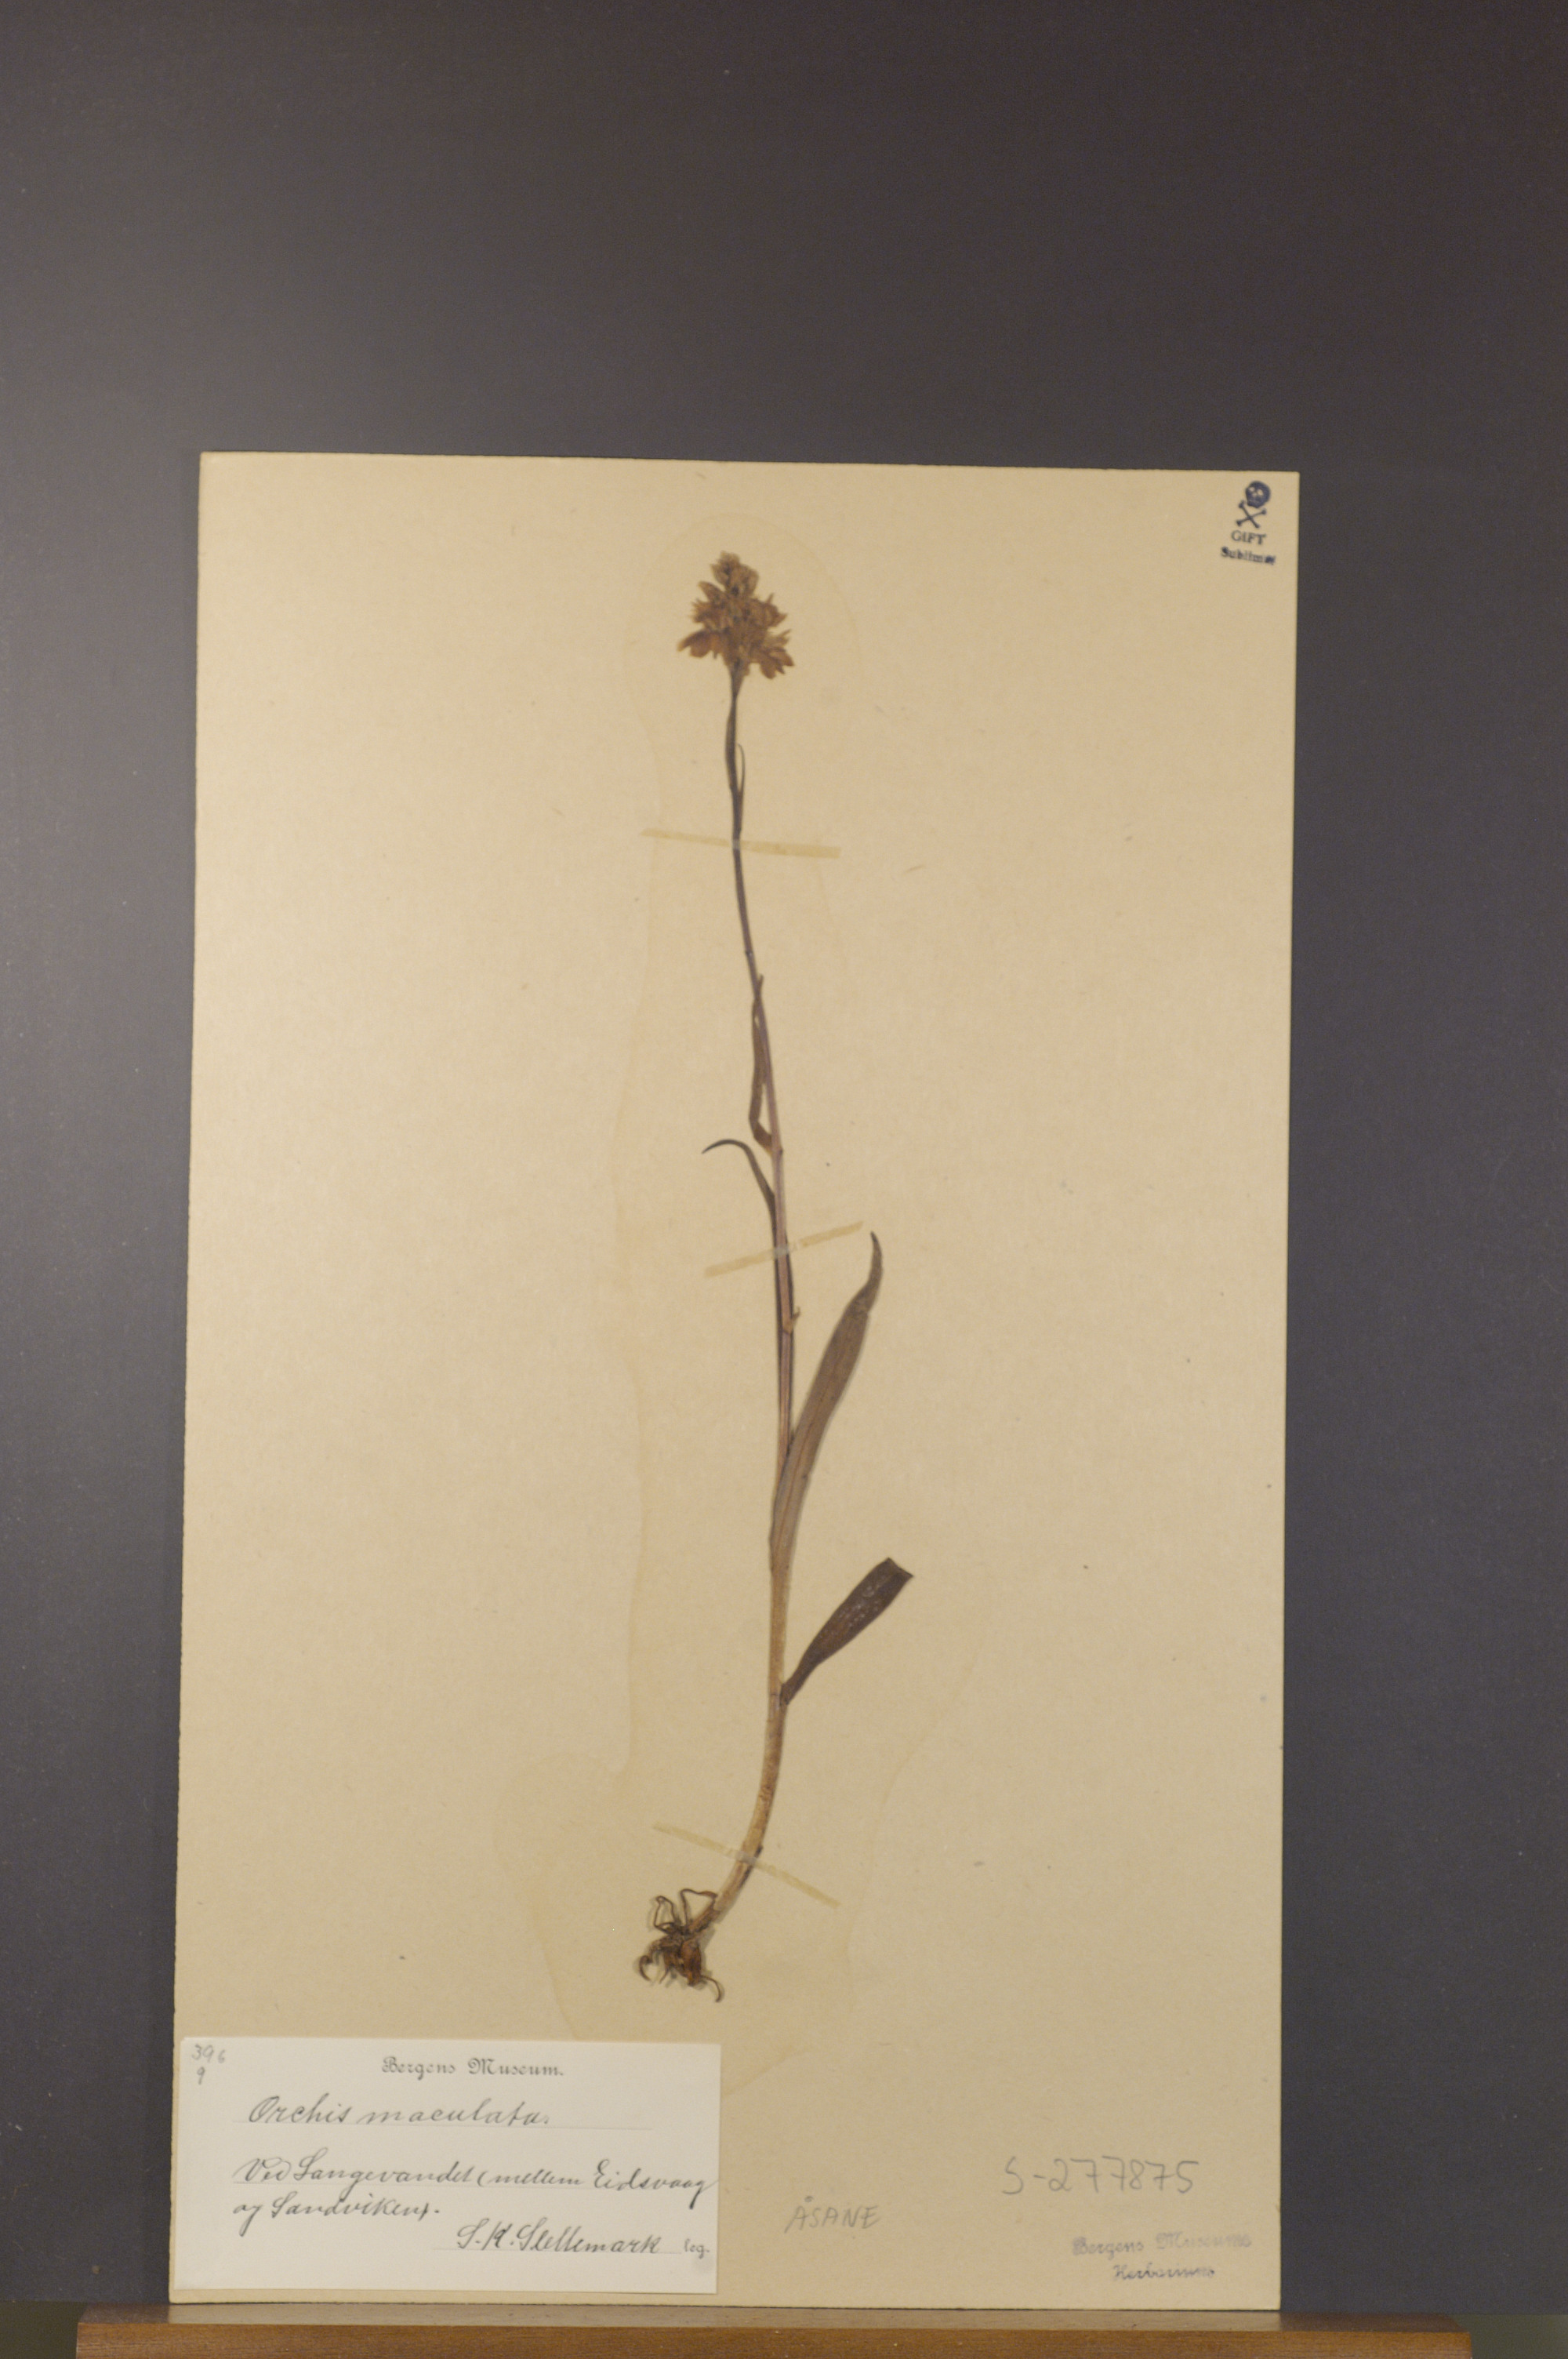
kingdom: Plantae
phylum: Tracheophyta
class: Liliopsida
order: Asparagales
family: Orchidaceae
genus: Dactylorhiza
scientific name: Dactylorhiza maculata
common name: Heath spotted-orchid
